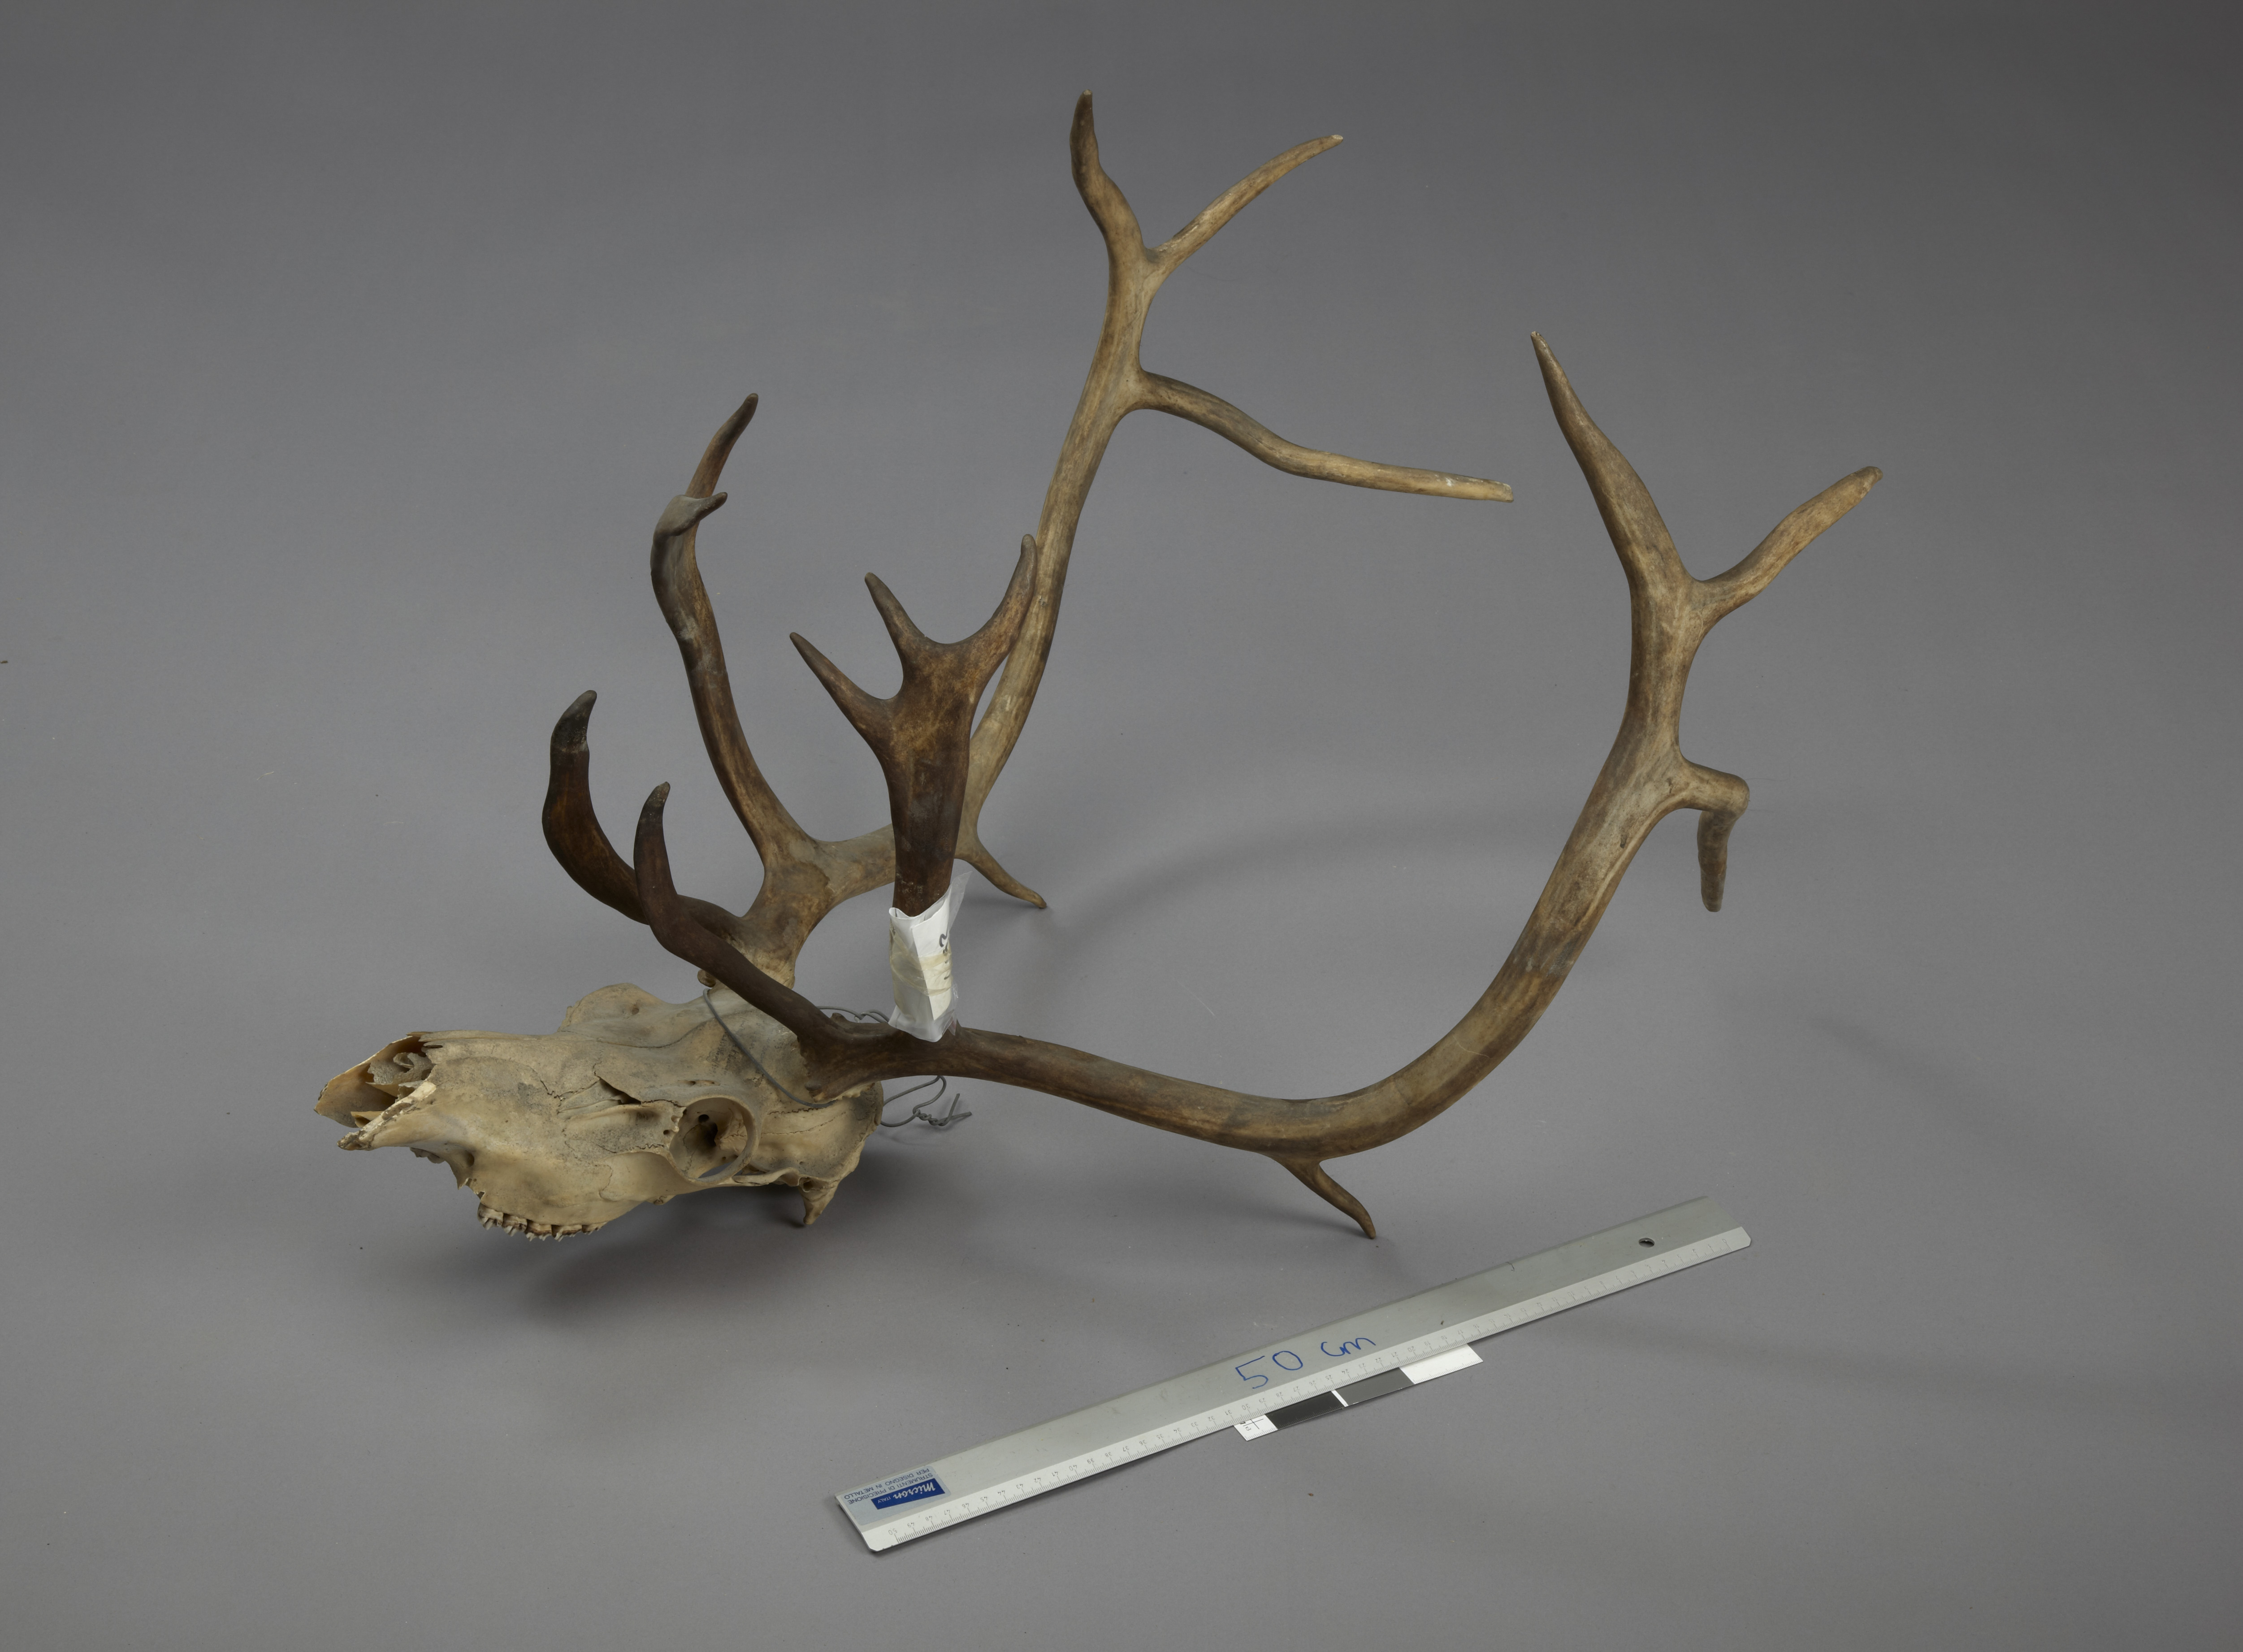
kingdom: Animalia
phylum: Chordata
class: Mammalia
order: Artiodactyla
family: Cervidae
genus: Rangifer
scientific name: Rangifer tarandus
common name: Reindeer
